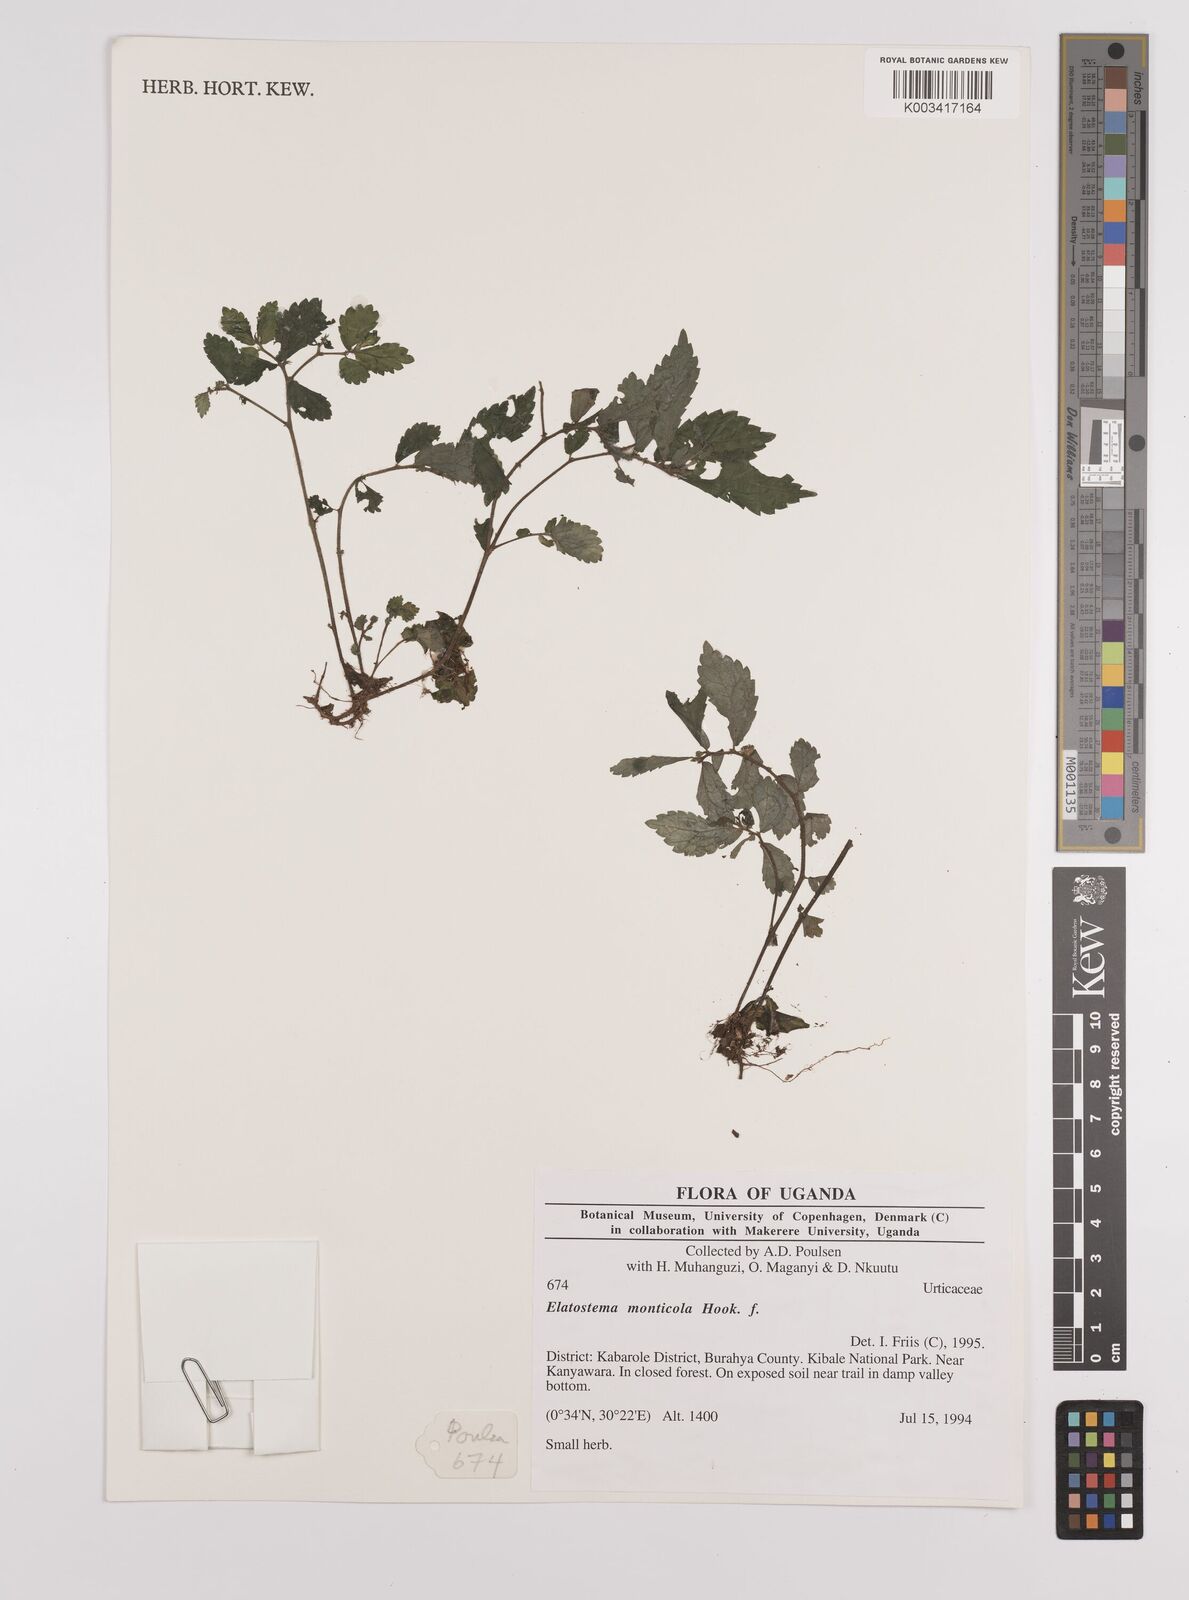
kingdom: Plantae
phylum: Tracheophyta
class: Magnoliopsida
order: Rosales
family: Urticaceae
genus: Elatostema
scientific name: Elatostema monticola
